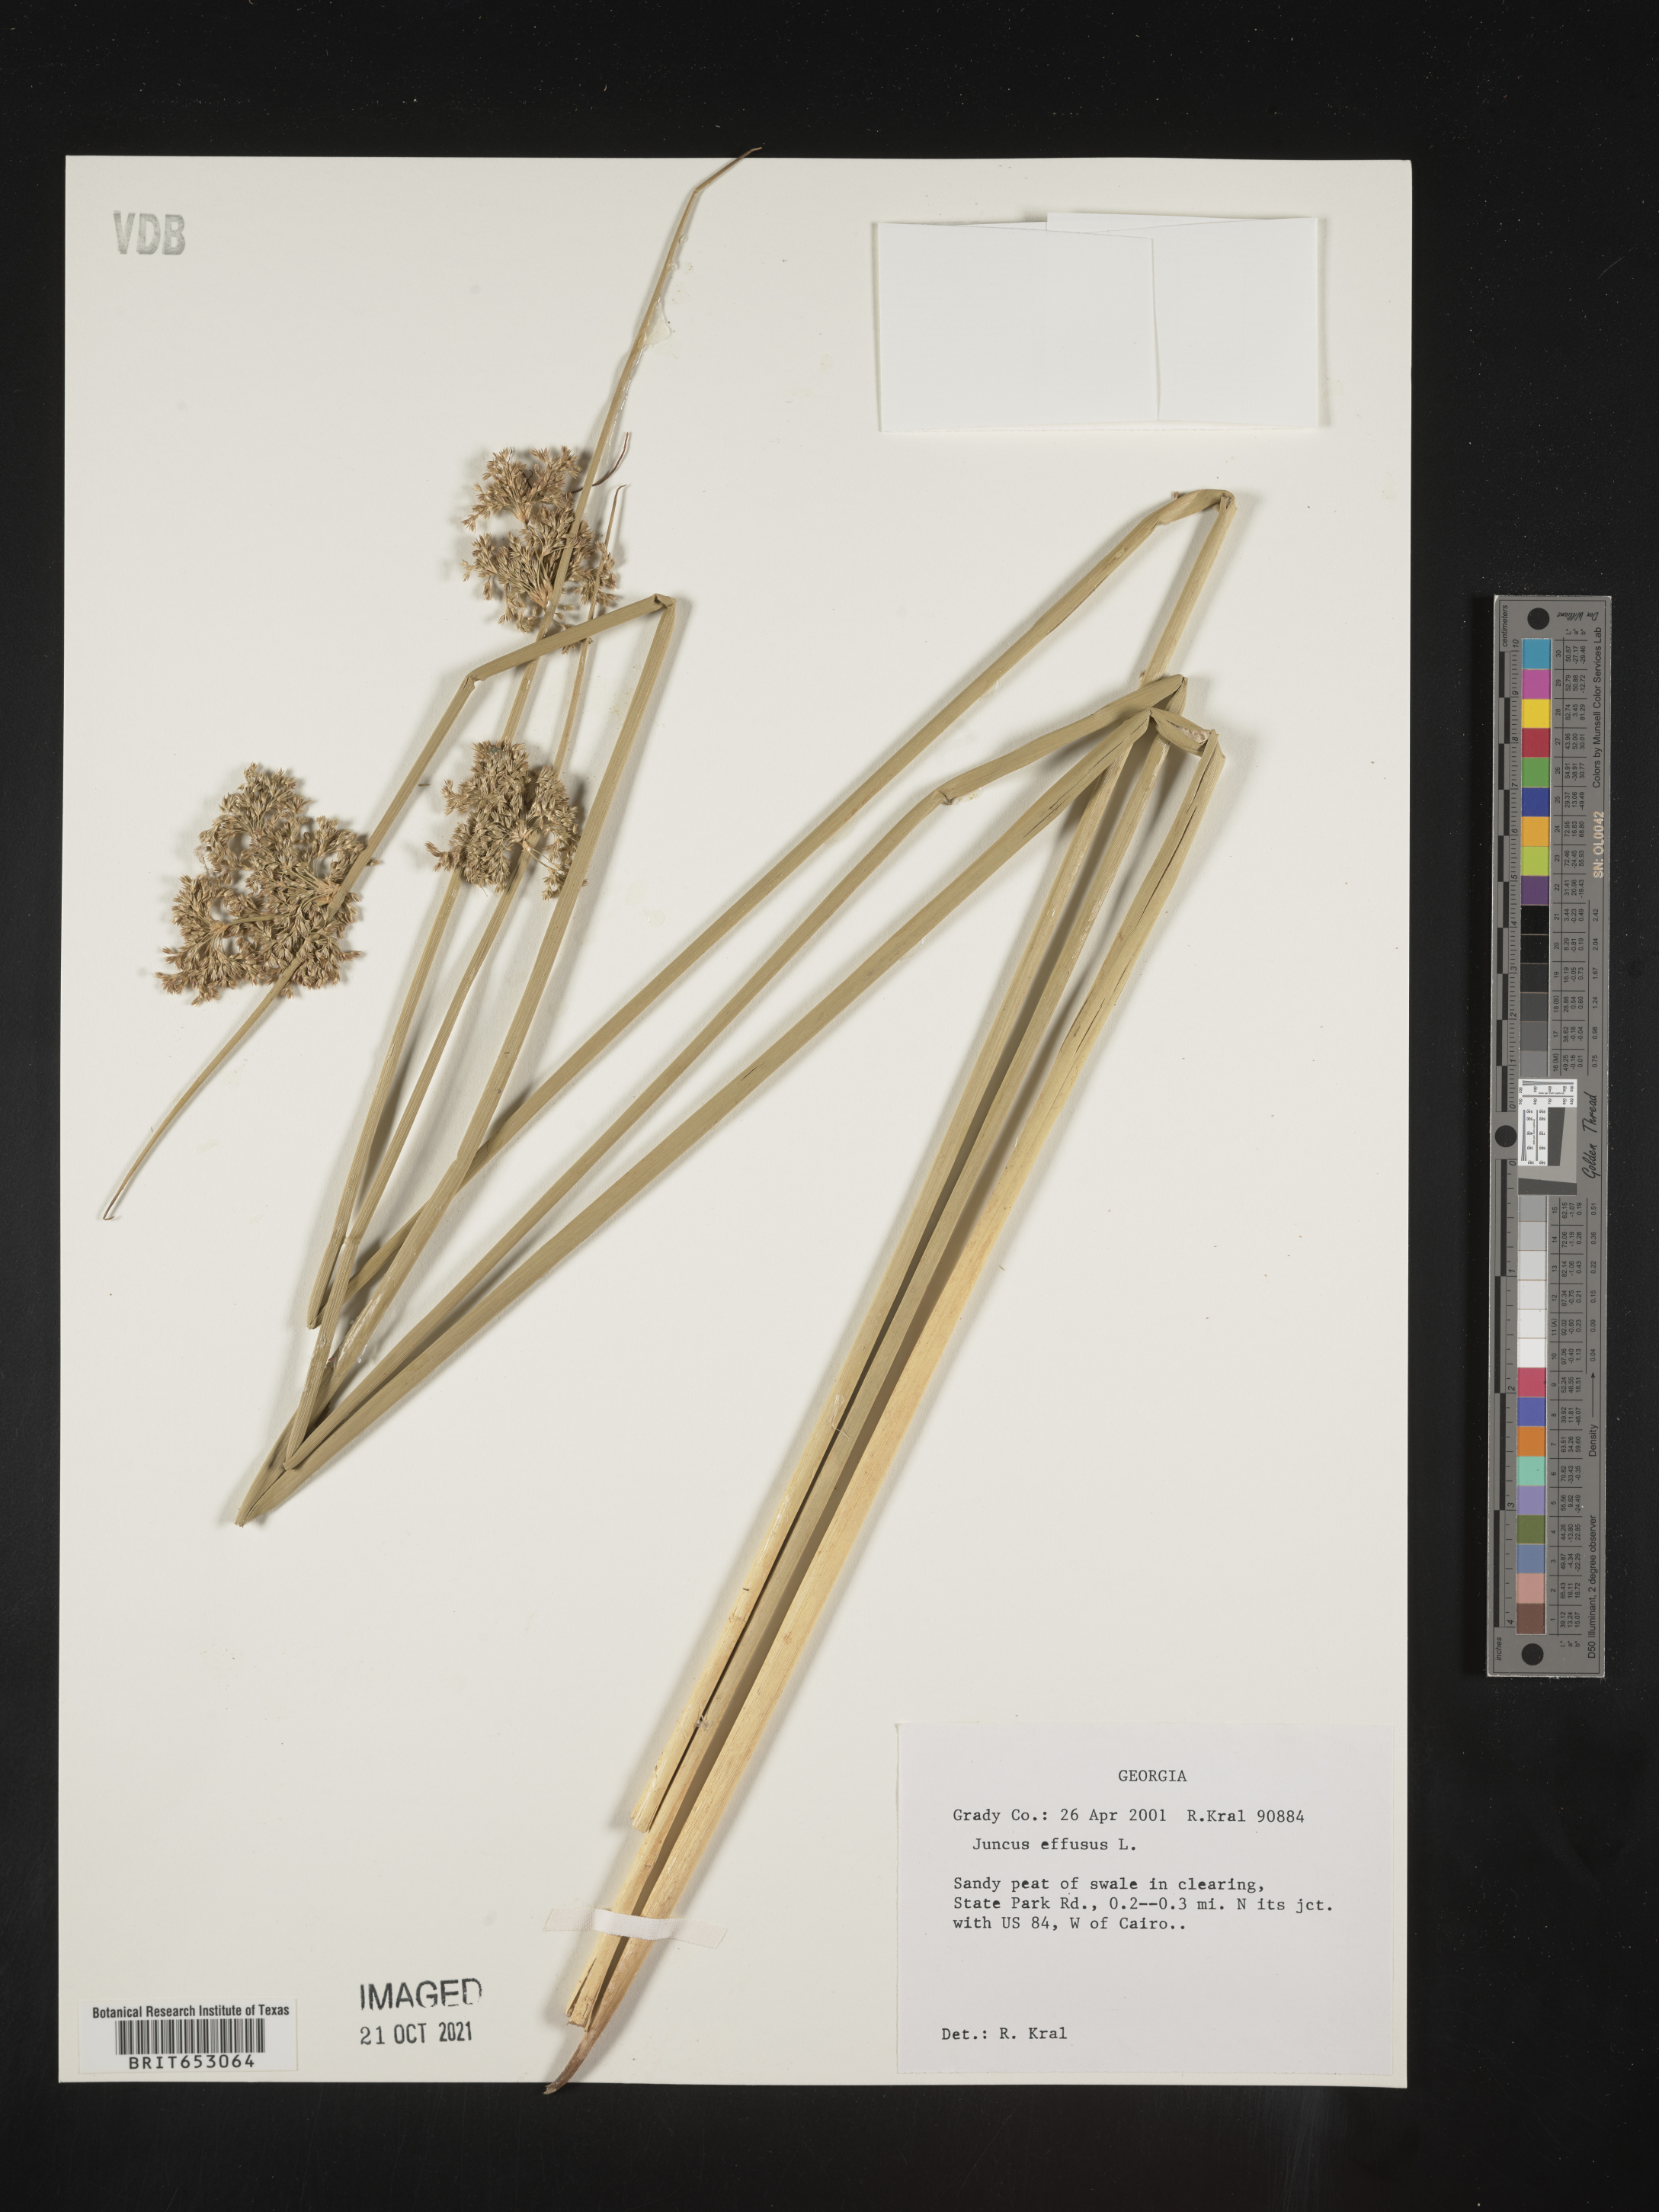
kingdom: Plantae
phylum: Tracheophyta
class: Liliopsida
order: Poales
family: Juncaceae
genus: Juncus
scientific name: Juncus effusus
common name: Soft rush
